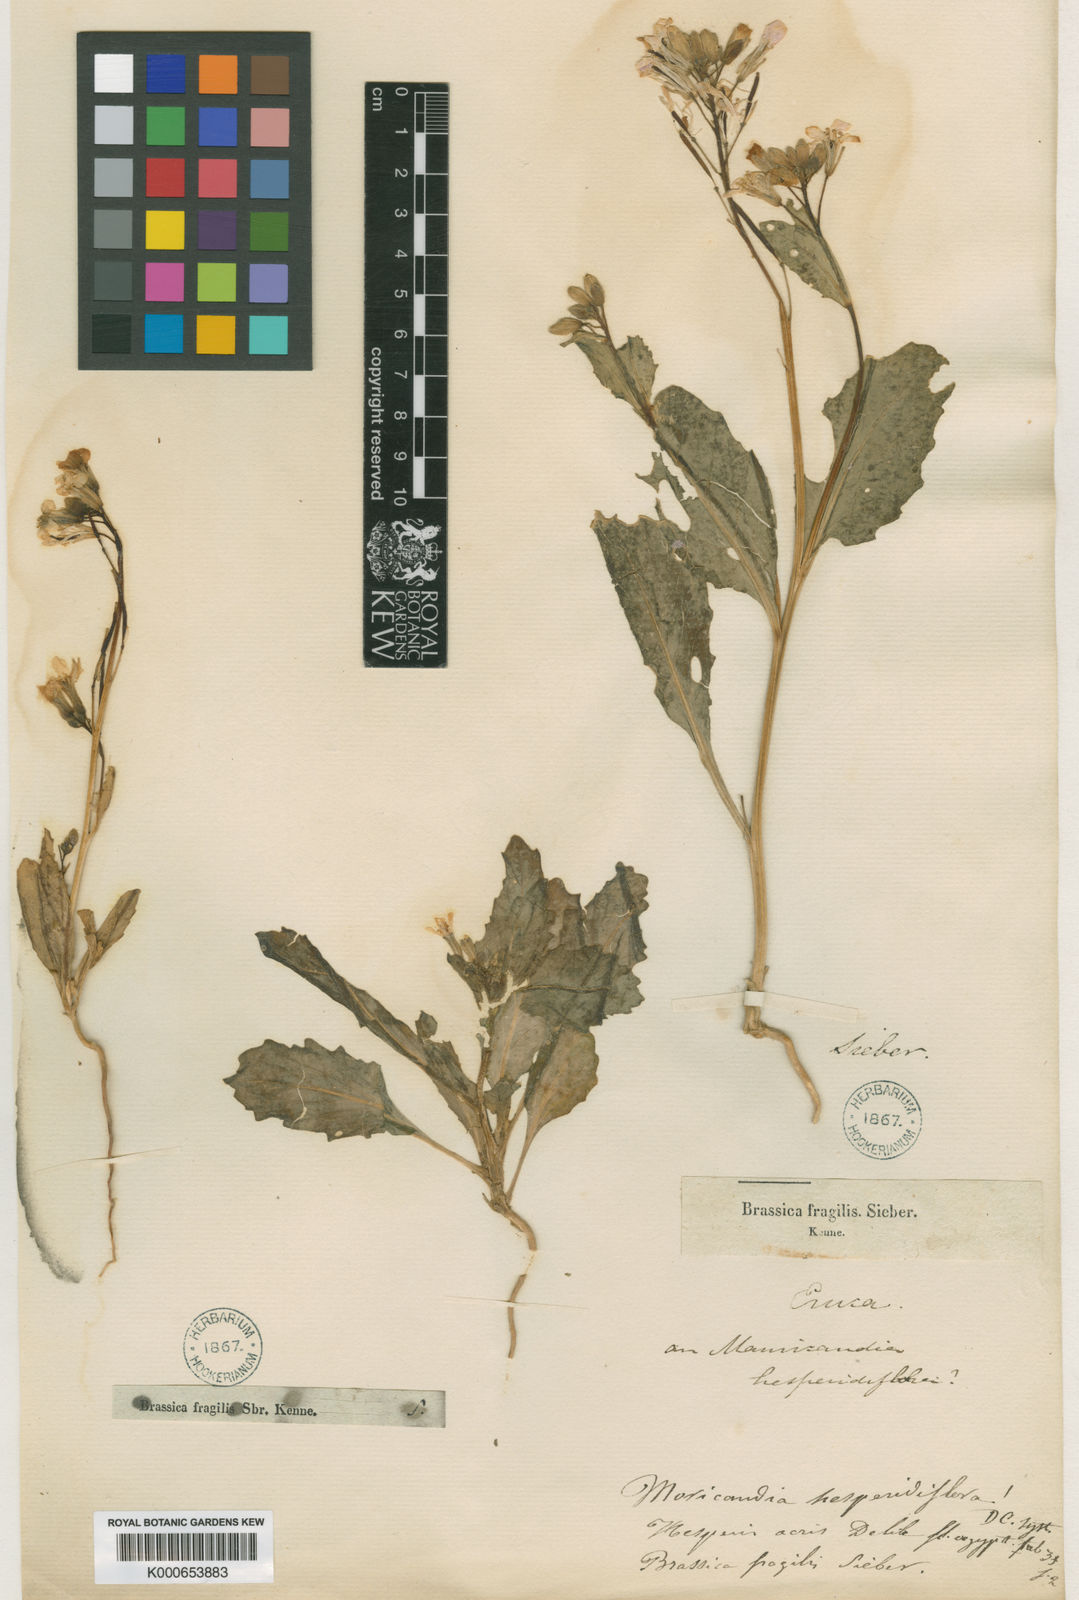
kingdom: Plantae
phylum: Tracheophyta
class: Magnoliopsida
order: Brassicales
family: Brassicaceae
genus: Diplotaxis
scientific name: Diplotaxis acris
